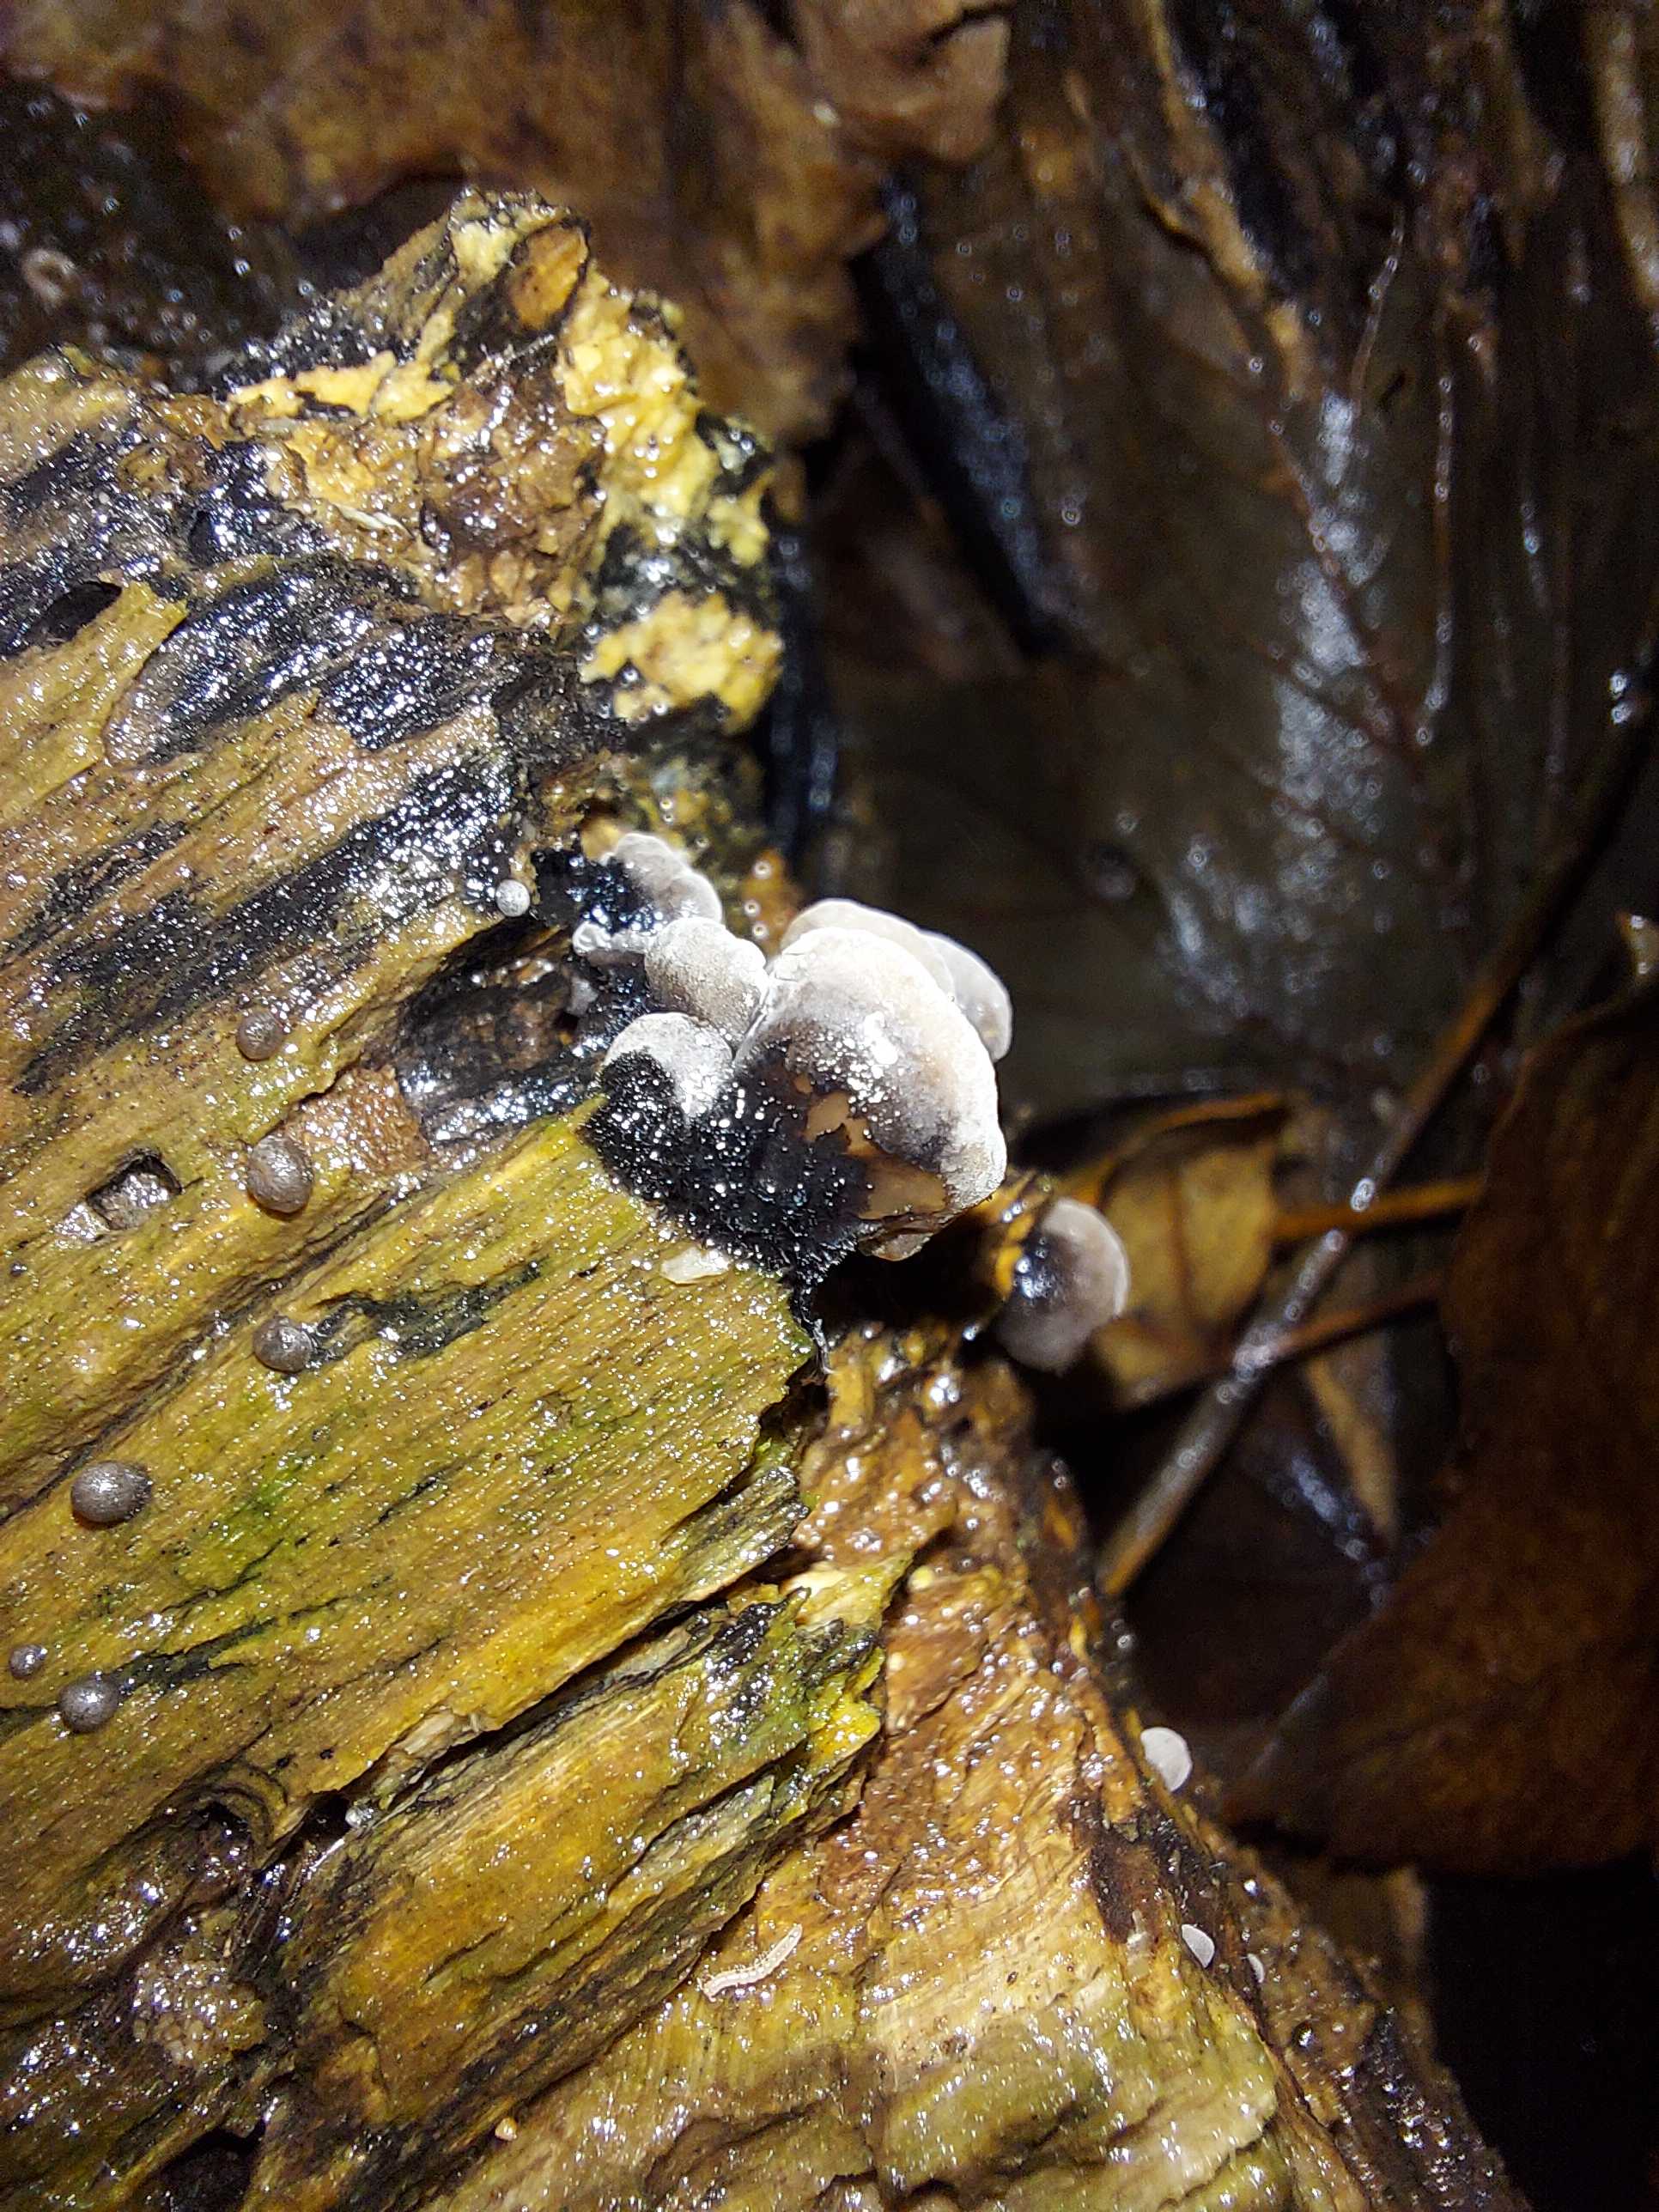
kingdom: Fungi
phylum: Basidiomycota
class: Agaricomycetes
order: Agaricales
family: Pleurotaceae
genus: Resupinatus
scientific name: Resupinatus trichotis
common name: mørkfiltet barkhat
